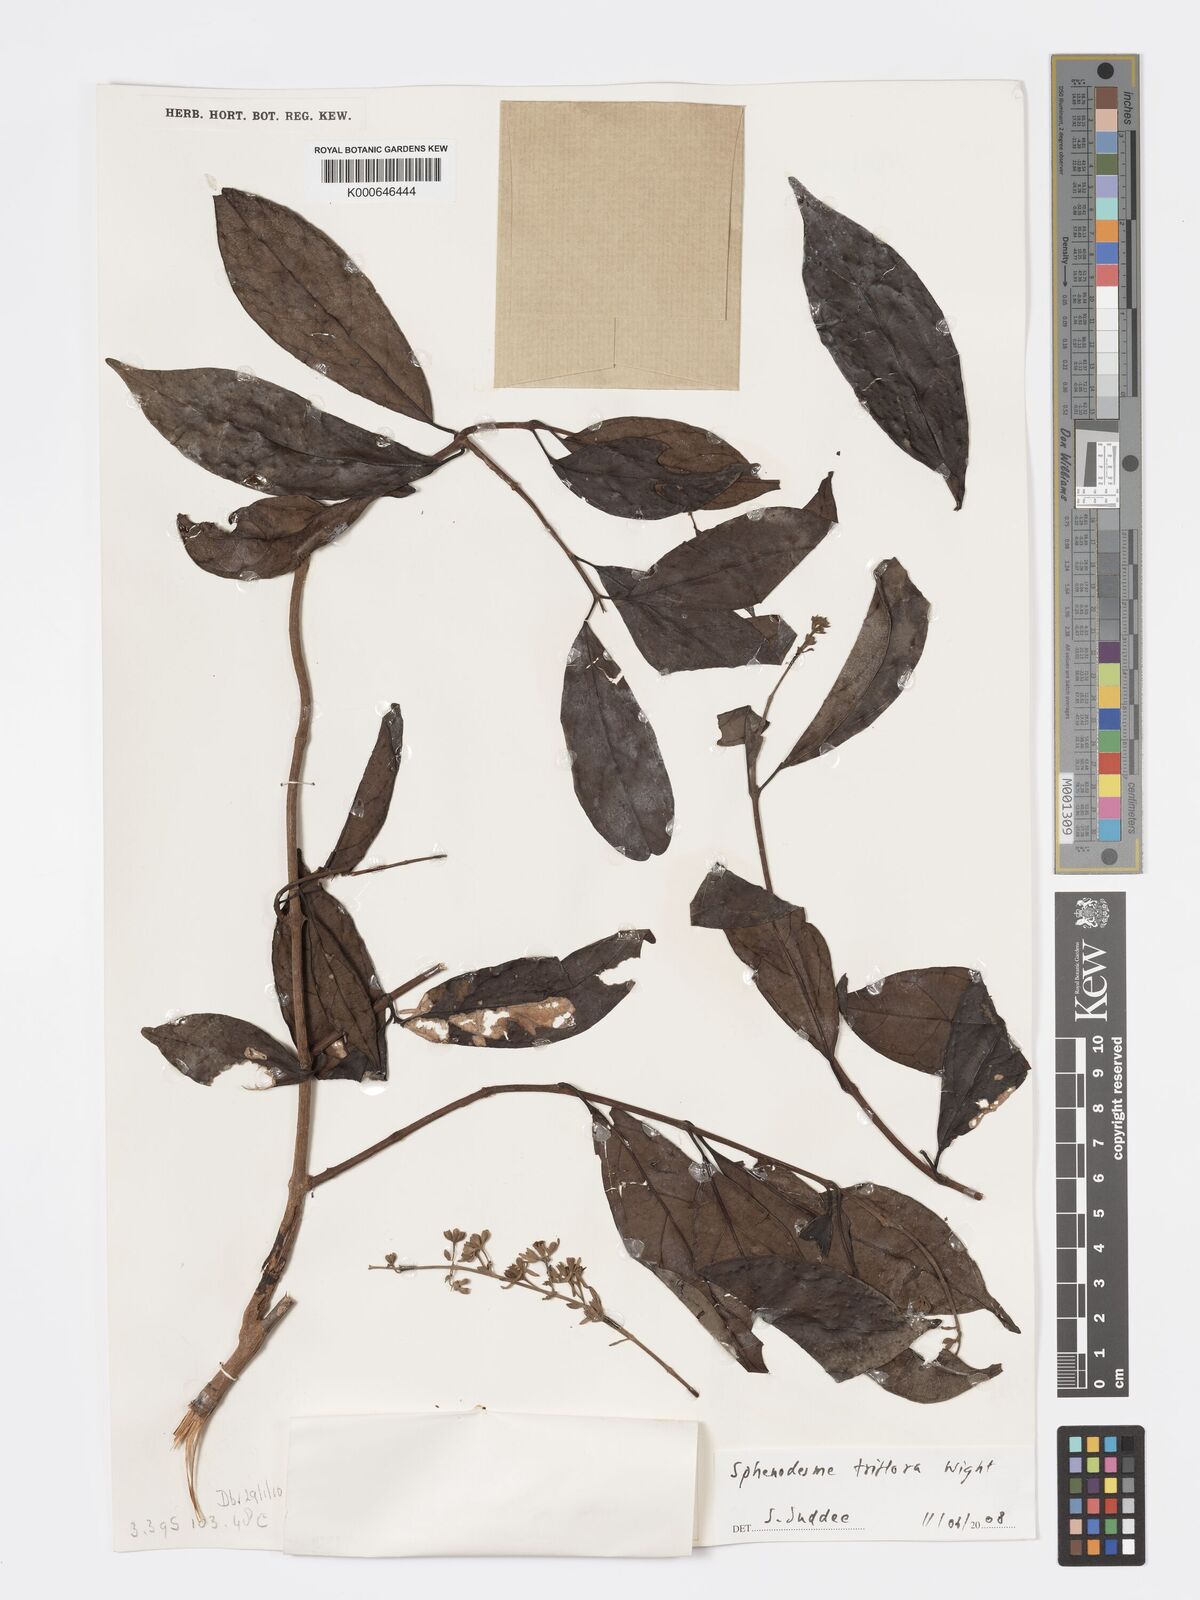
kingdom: Plantae
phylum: Tracheophyta
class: Magnoliopsida
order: Lamiales
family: Lamiaceae
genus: Sphenodesme
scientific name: Sphenodesme triflora
